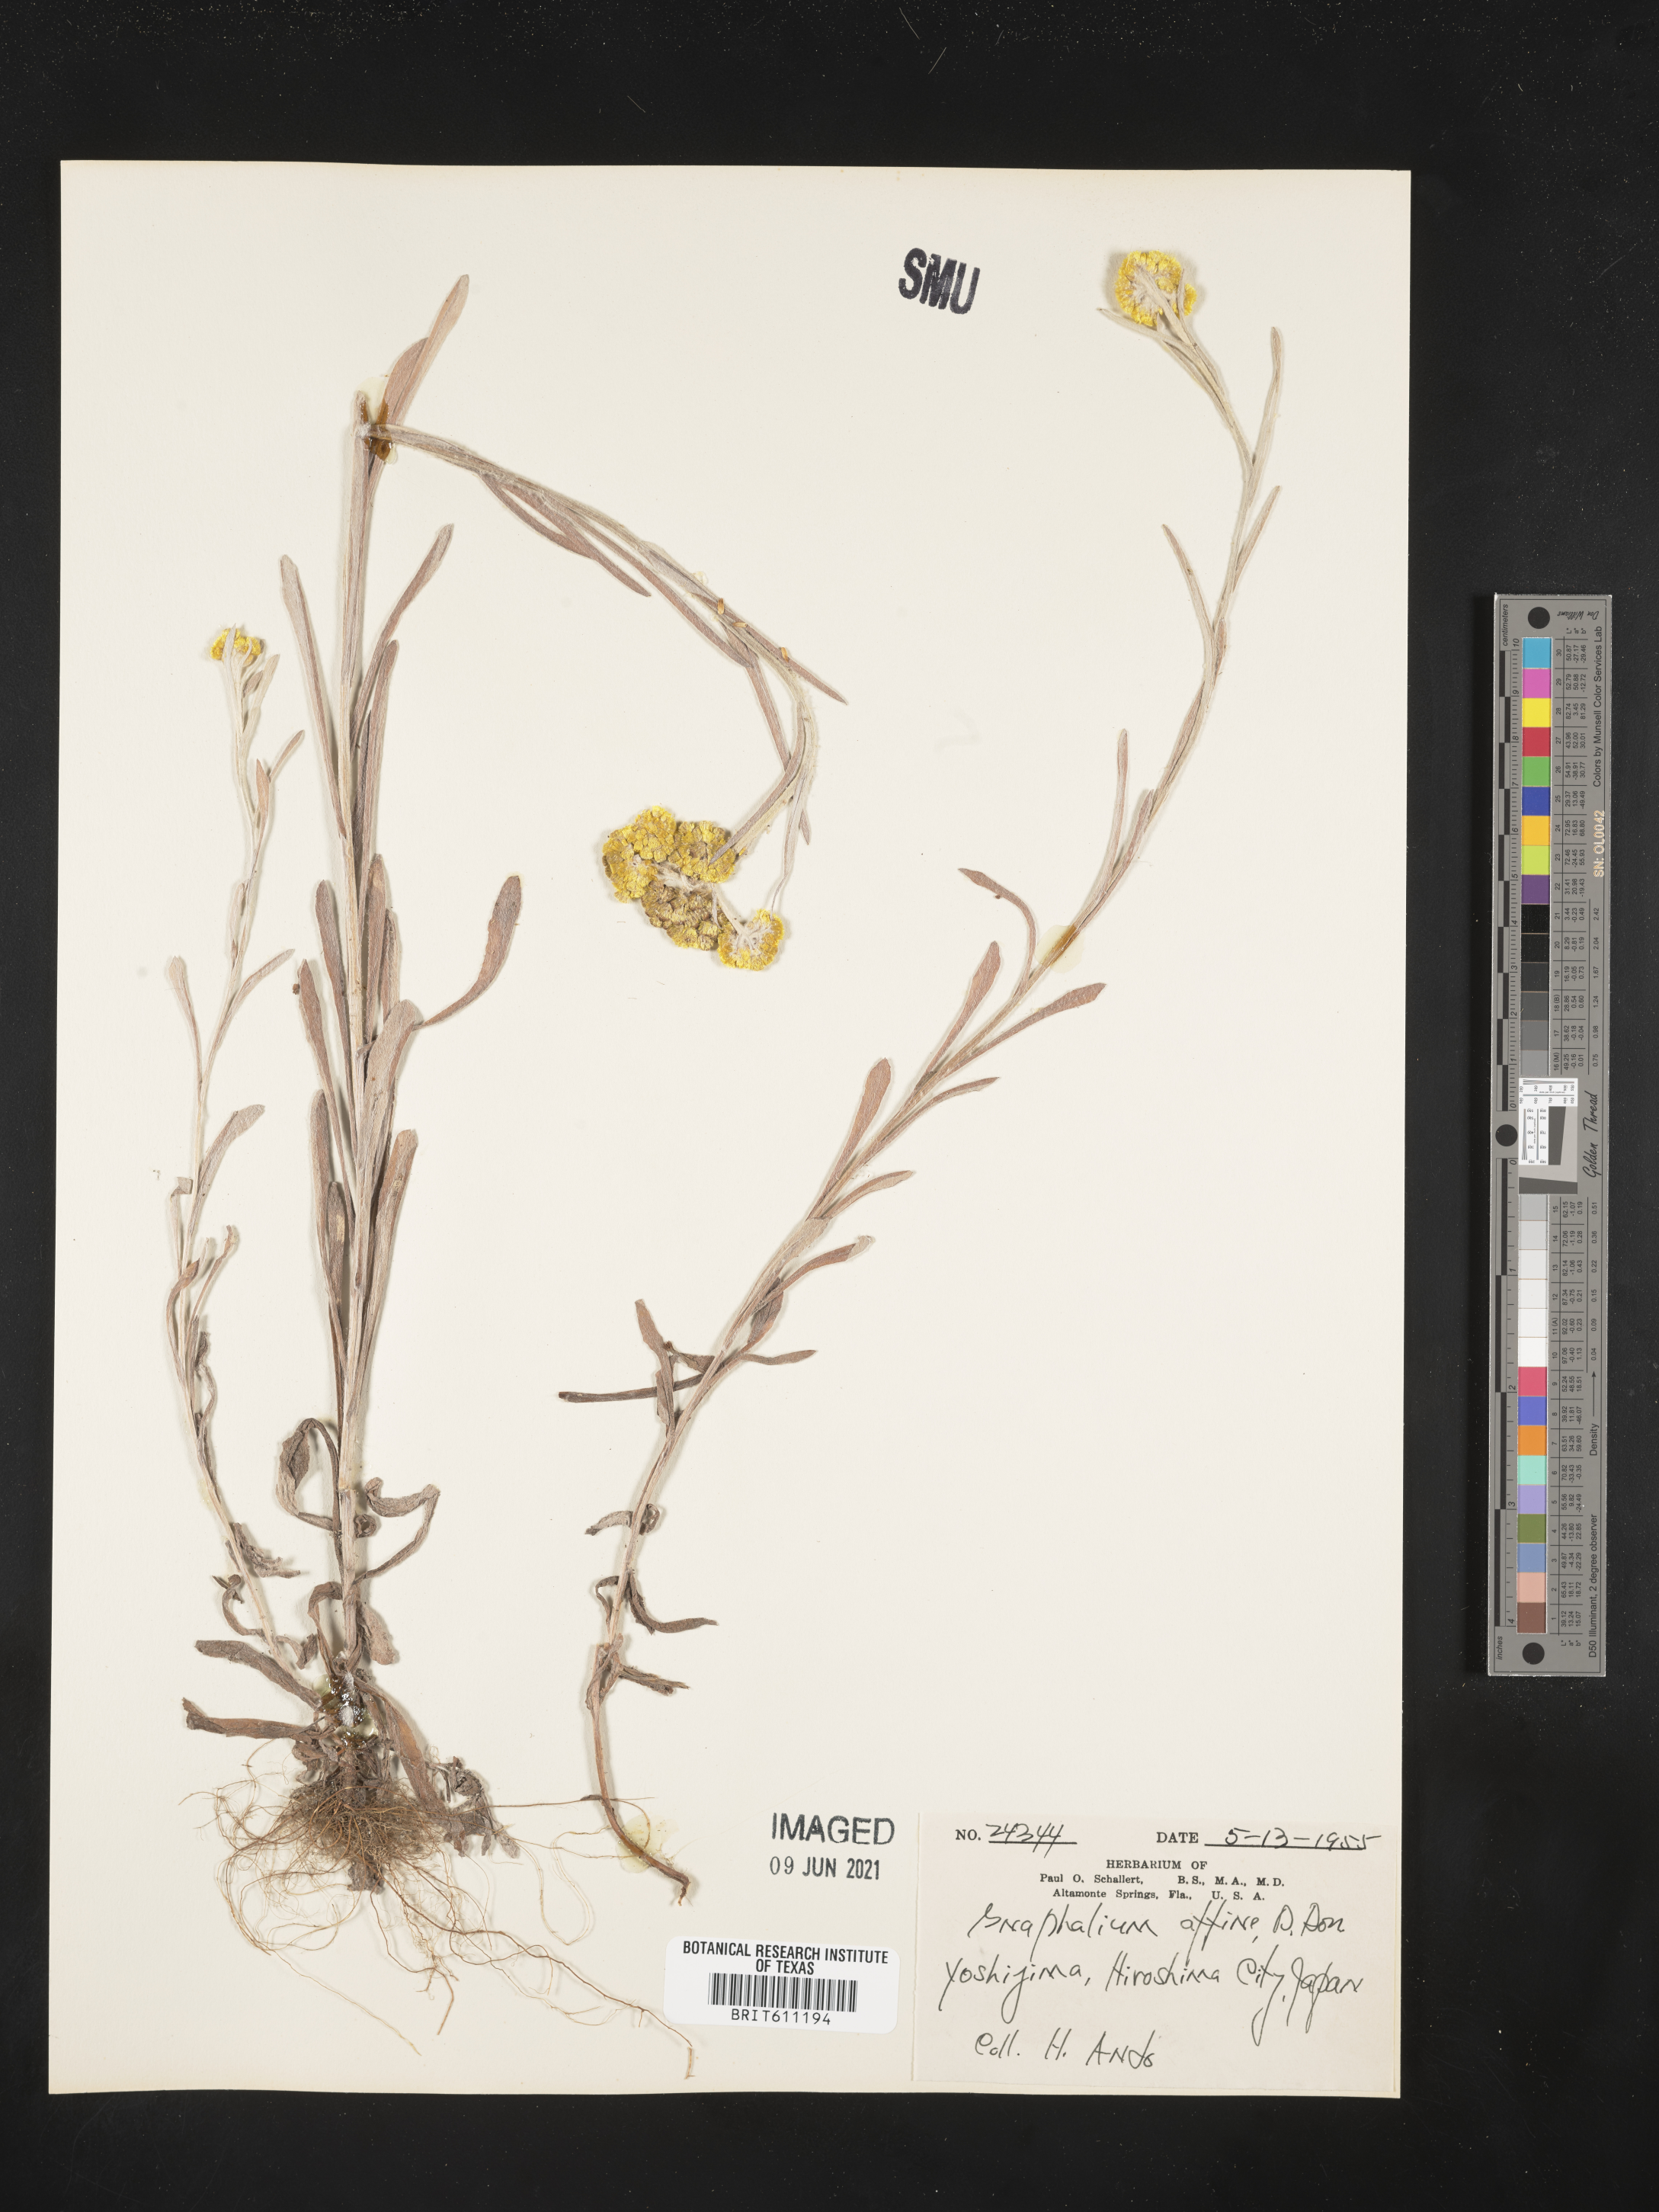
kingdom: Plantae
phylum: Tracheophyta
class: Magnoliopsida
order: Asterales
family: Asteraceae
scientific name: Asteraceae
